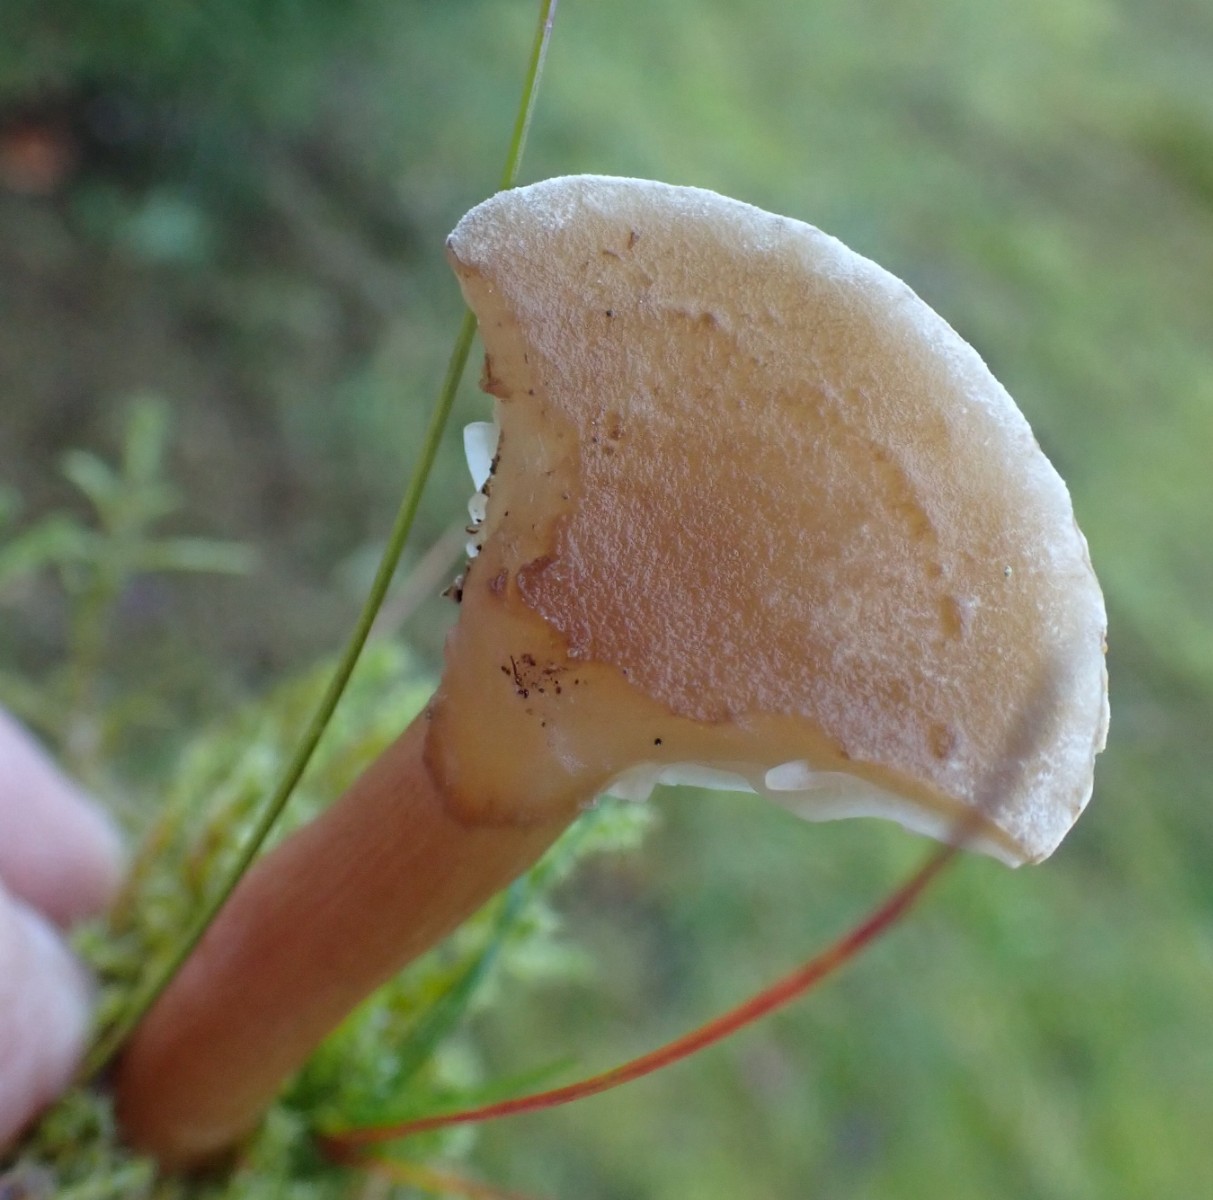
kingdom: Fungi
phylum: Basidiomycota
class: Agaricomycetes
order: Agaricales
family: Tricholomataceae
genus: Infundibulicybe
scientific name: Infundibulicybe
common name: tragthat
